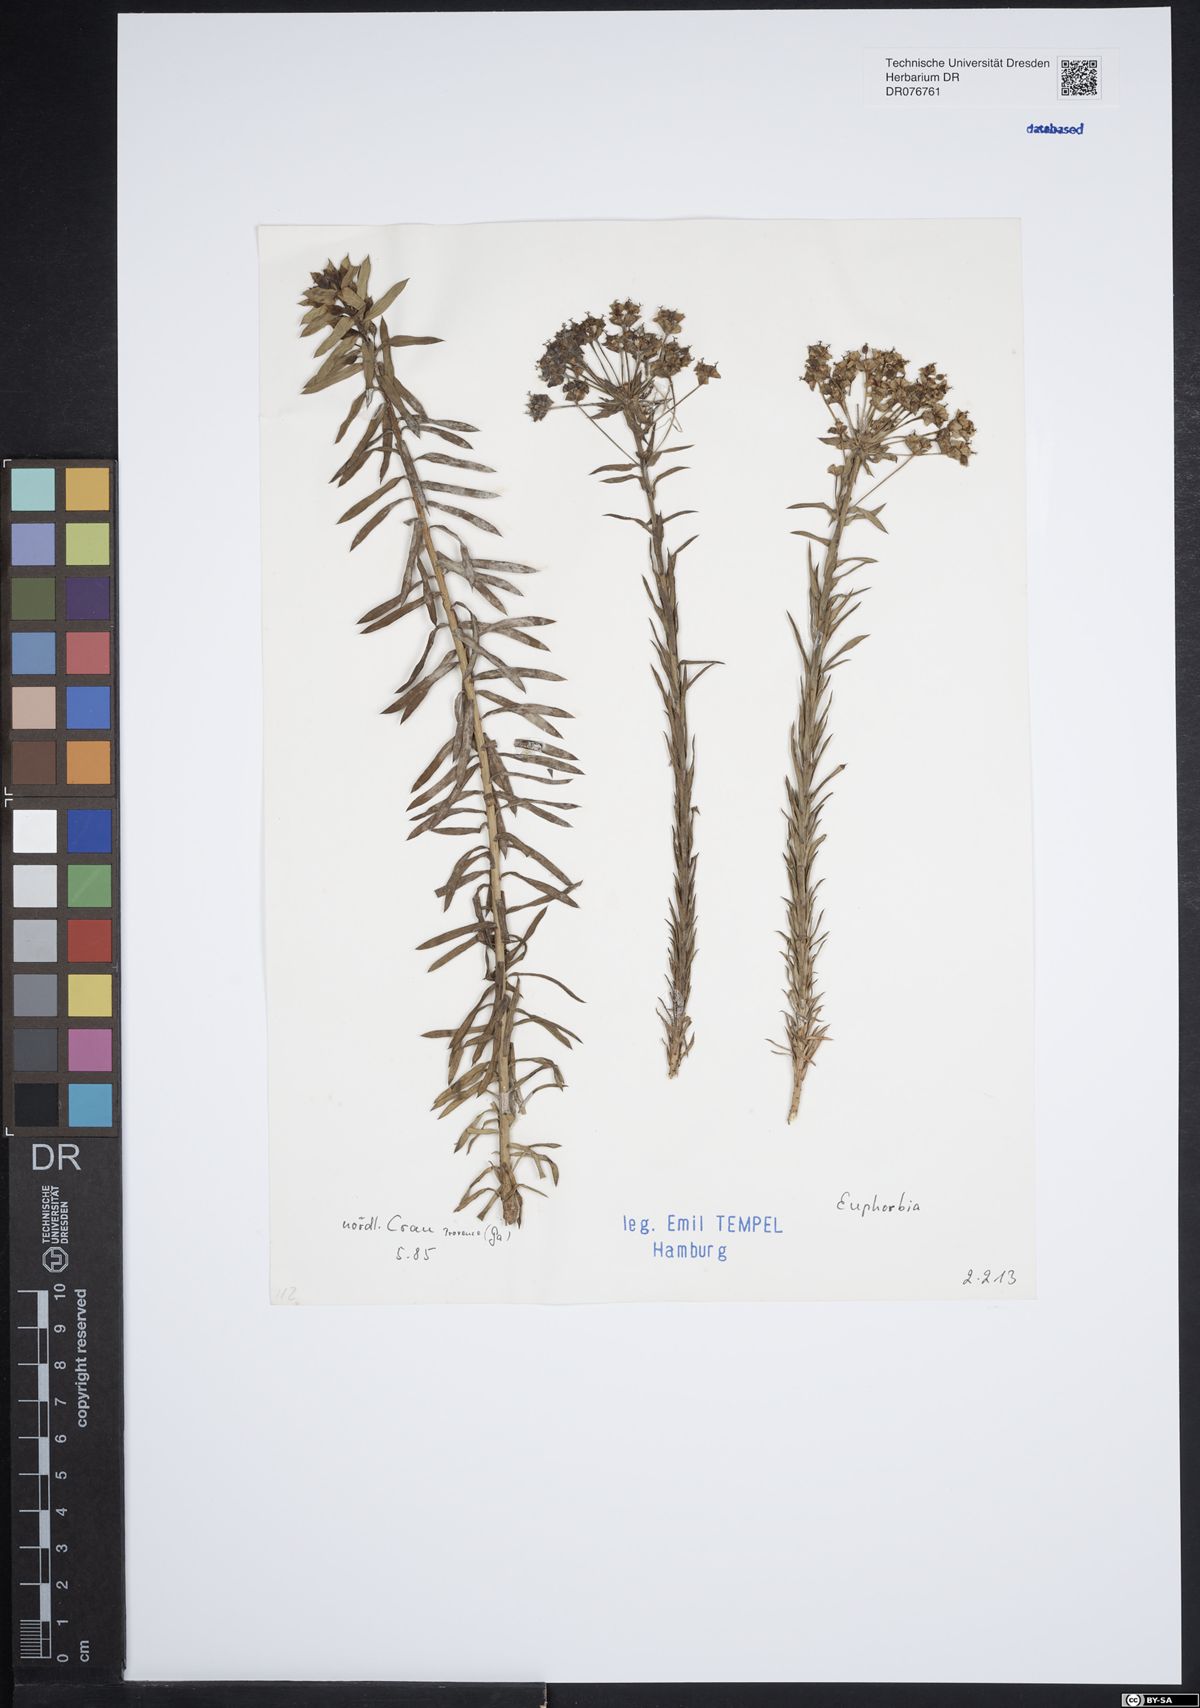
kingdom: Plantae
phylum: Tracheophyta
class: Magnoliopsida
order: Malpighiales
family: Euphorbiaceae
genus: Euphorbia
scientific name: Euphorbia
